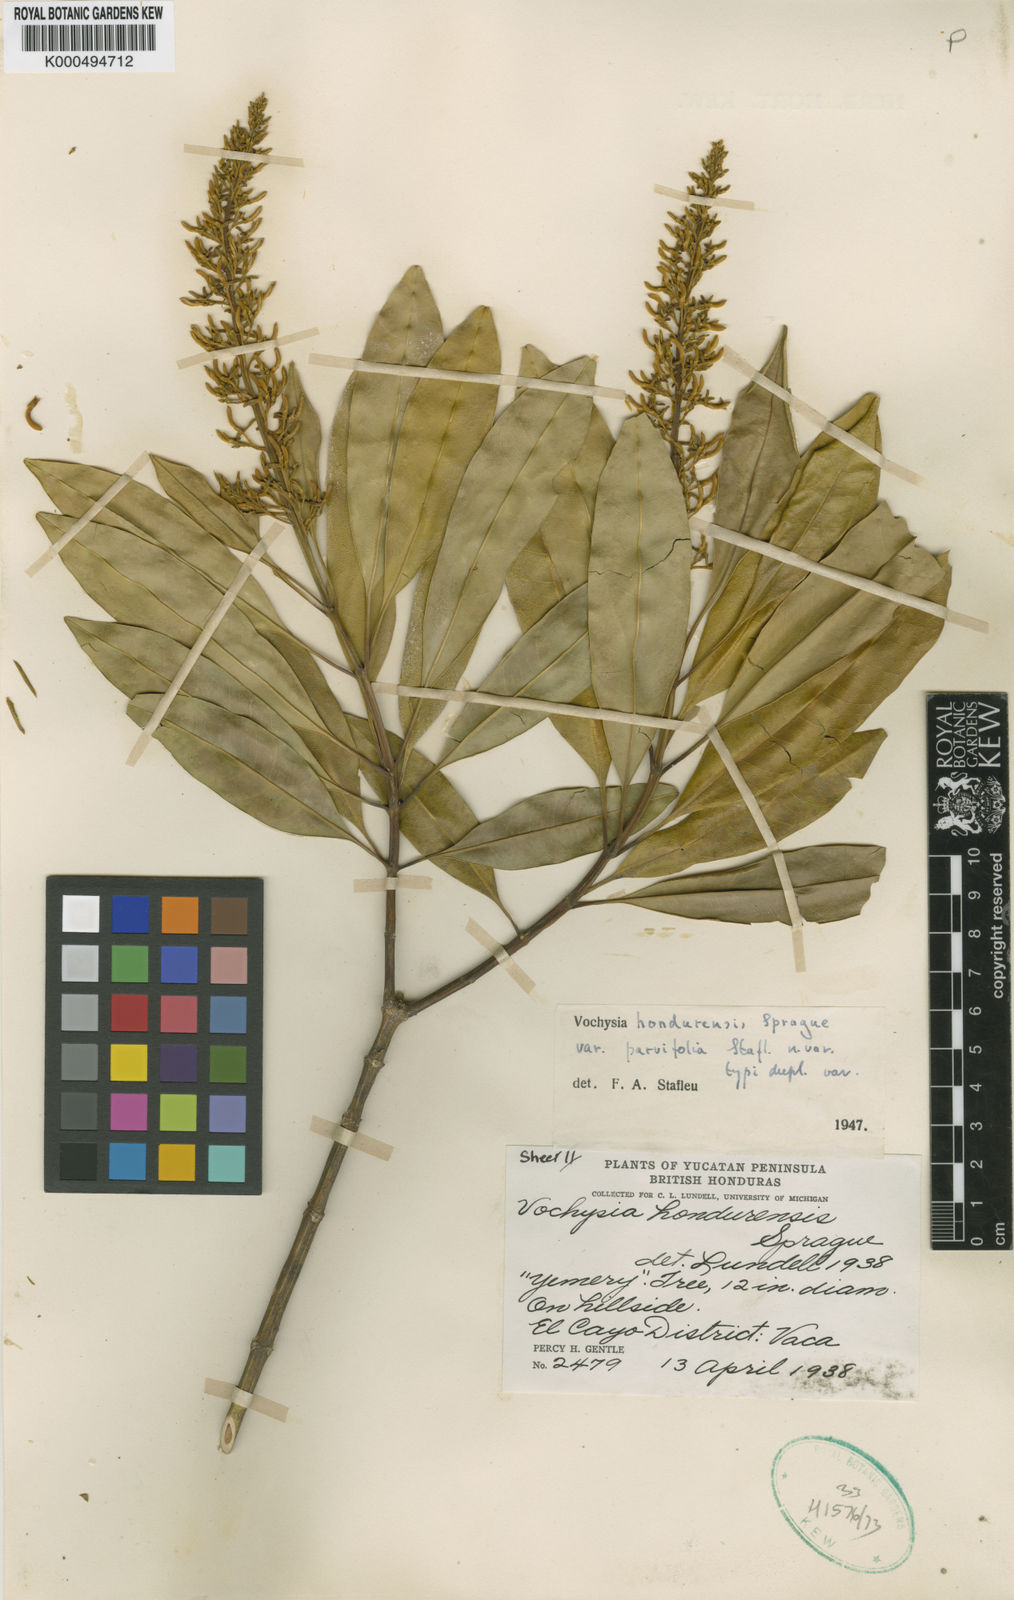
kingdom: Plantae
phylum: Tracheophyta
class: Magnoliopsida
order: Myrtales
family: Vochysiaceae
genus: Vochysia
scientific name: Vochysia guatemalensis
